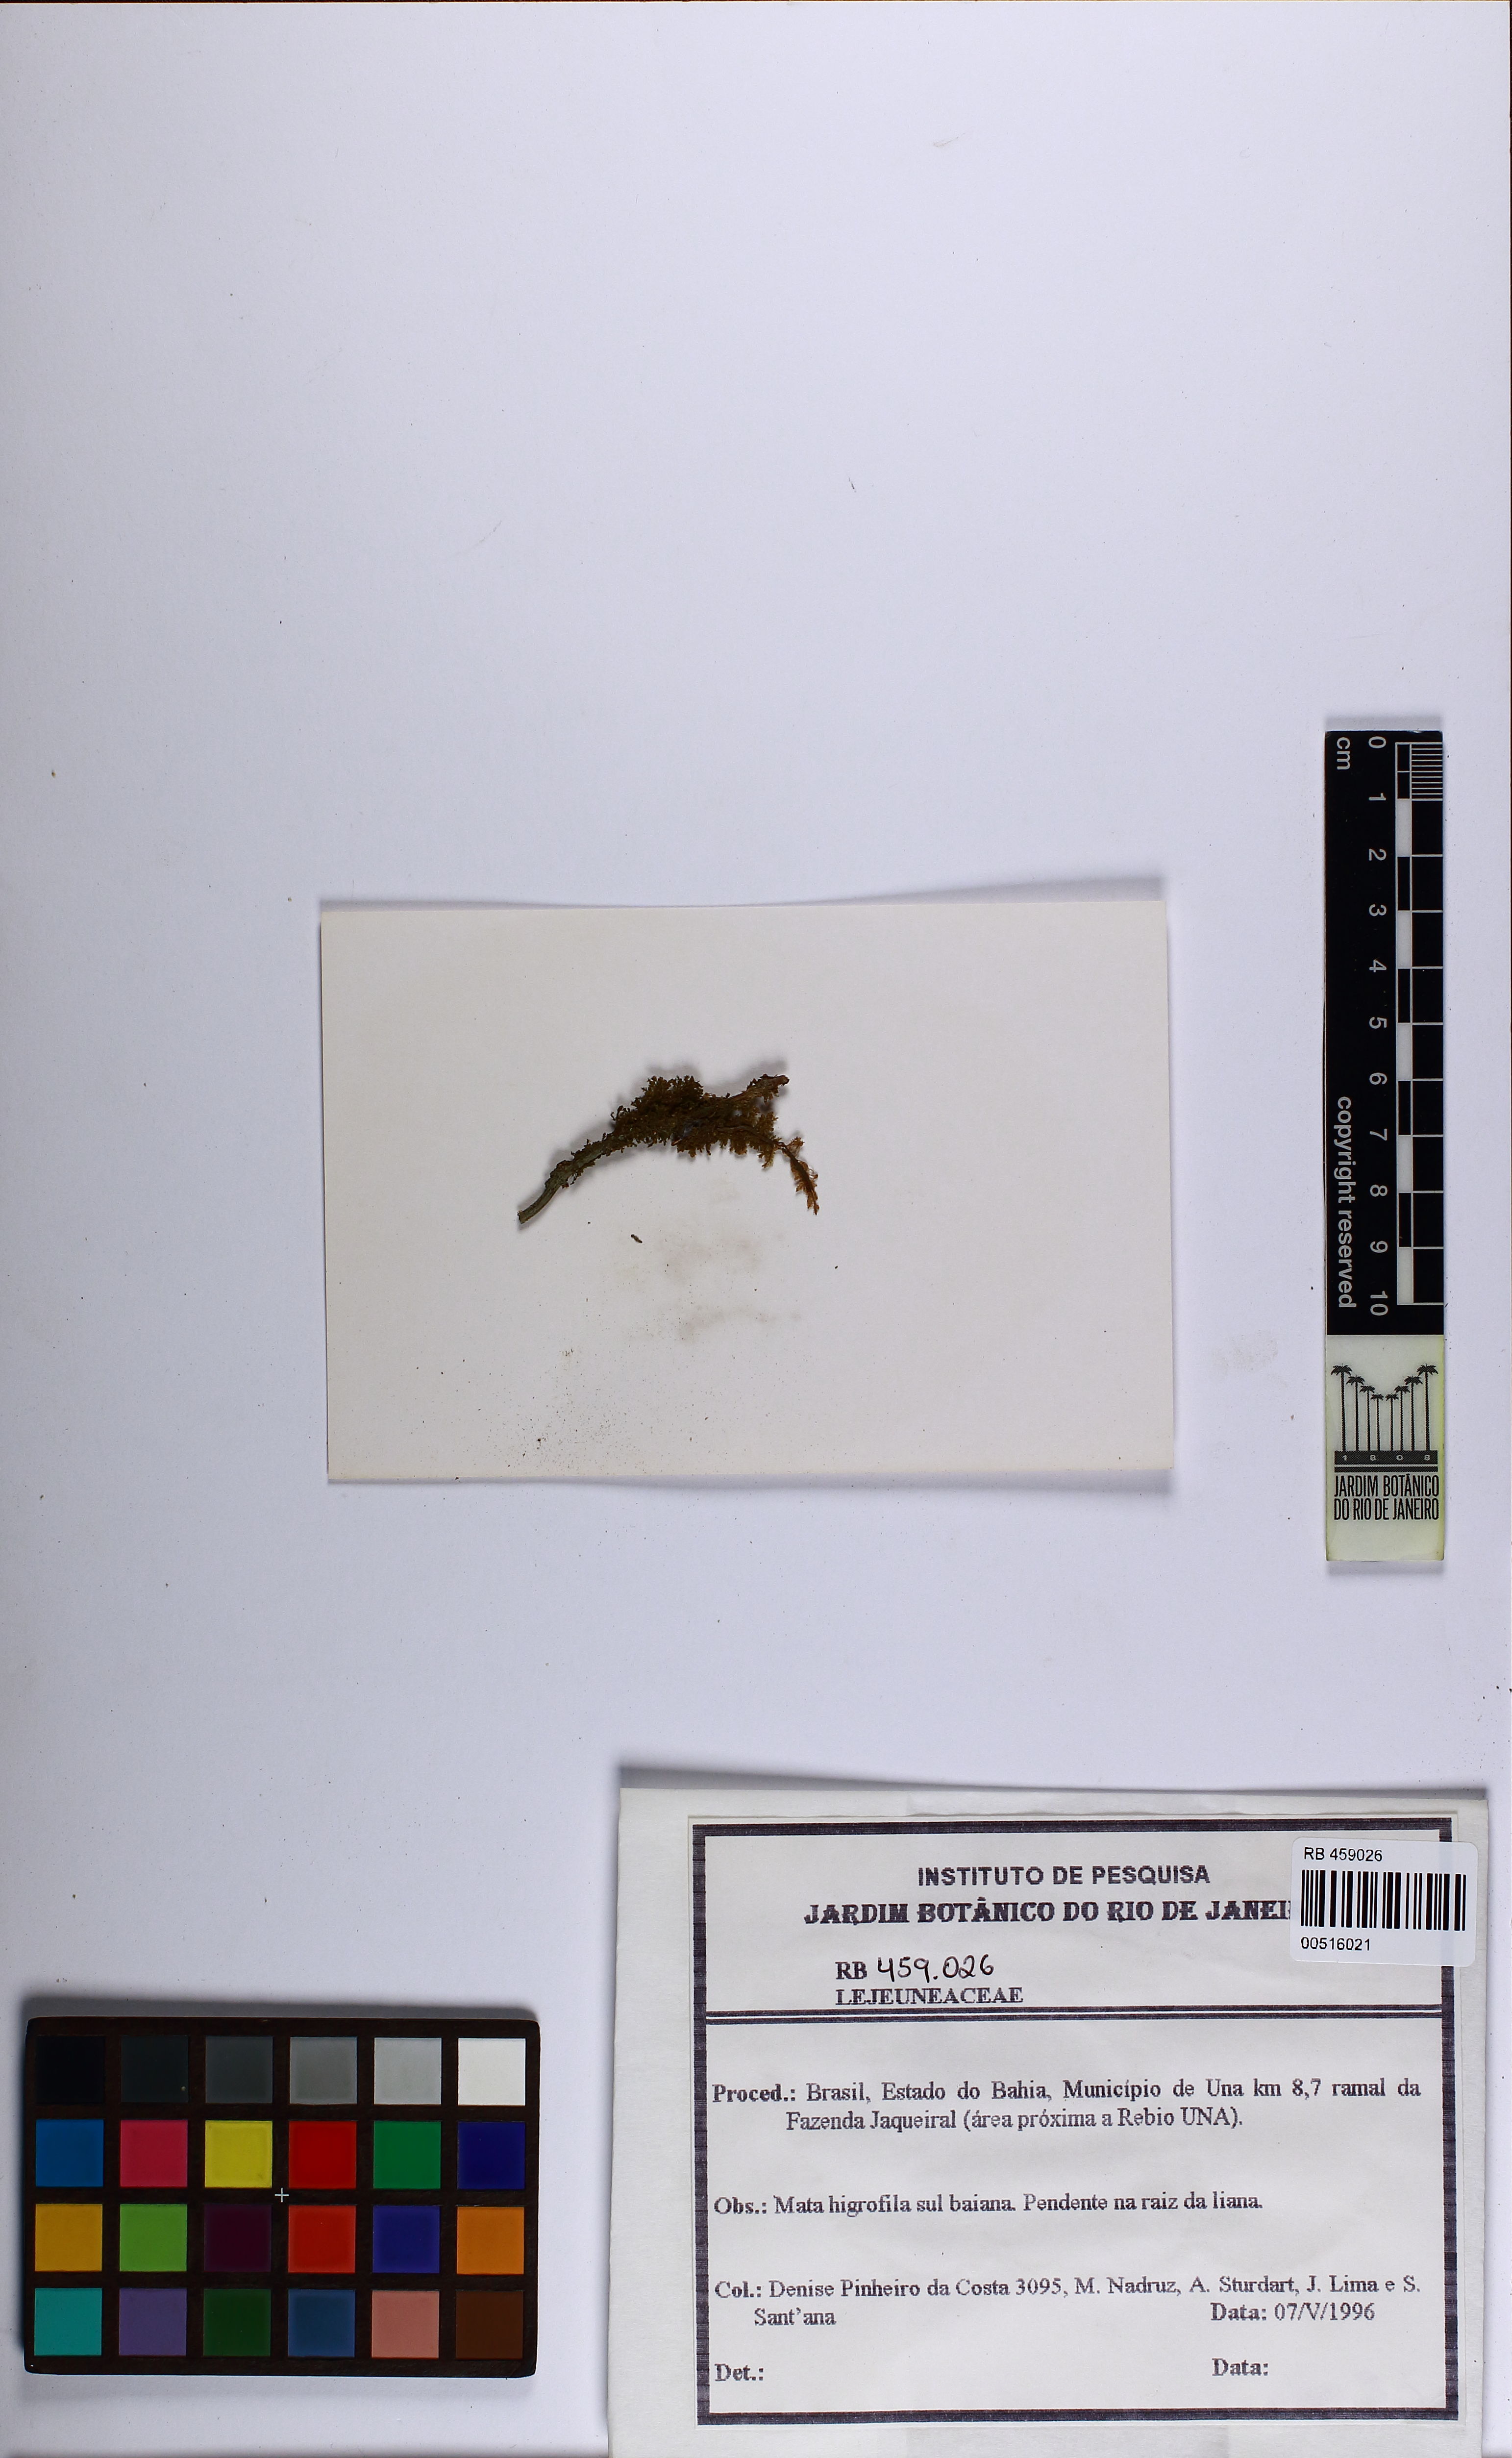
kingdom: Plantae
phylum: Marchantiophyta
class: Jungermanniopsida
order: Porellales
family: Lejeuneaceae
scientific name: Lejeuneaceae
